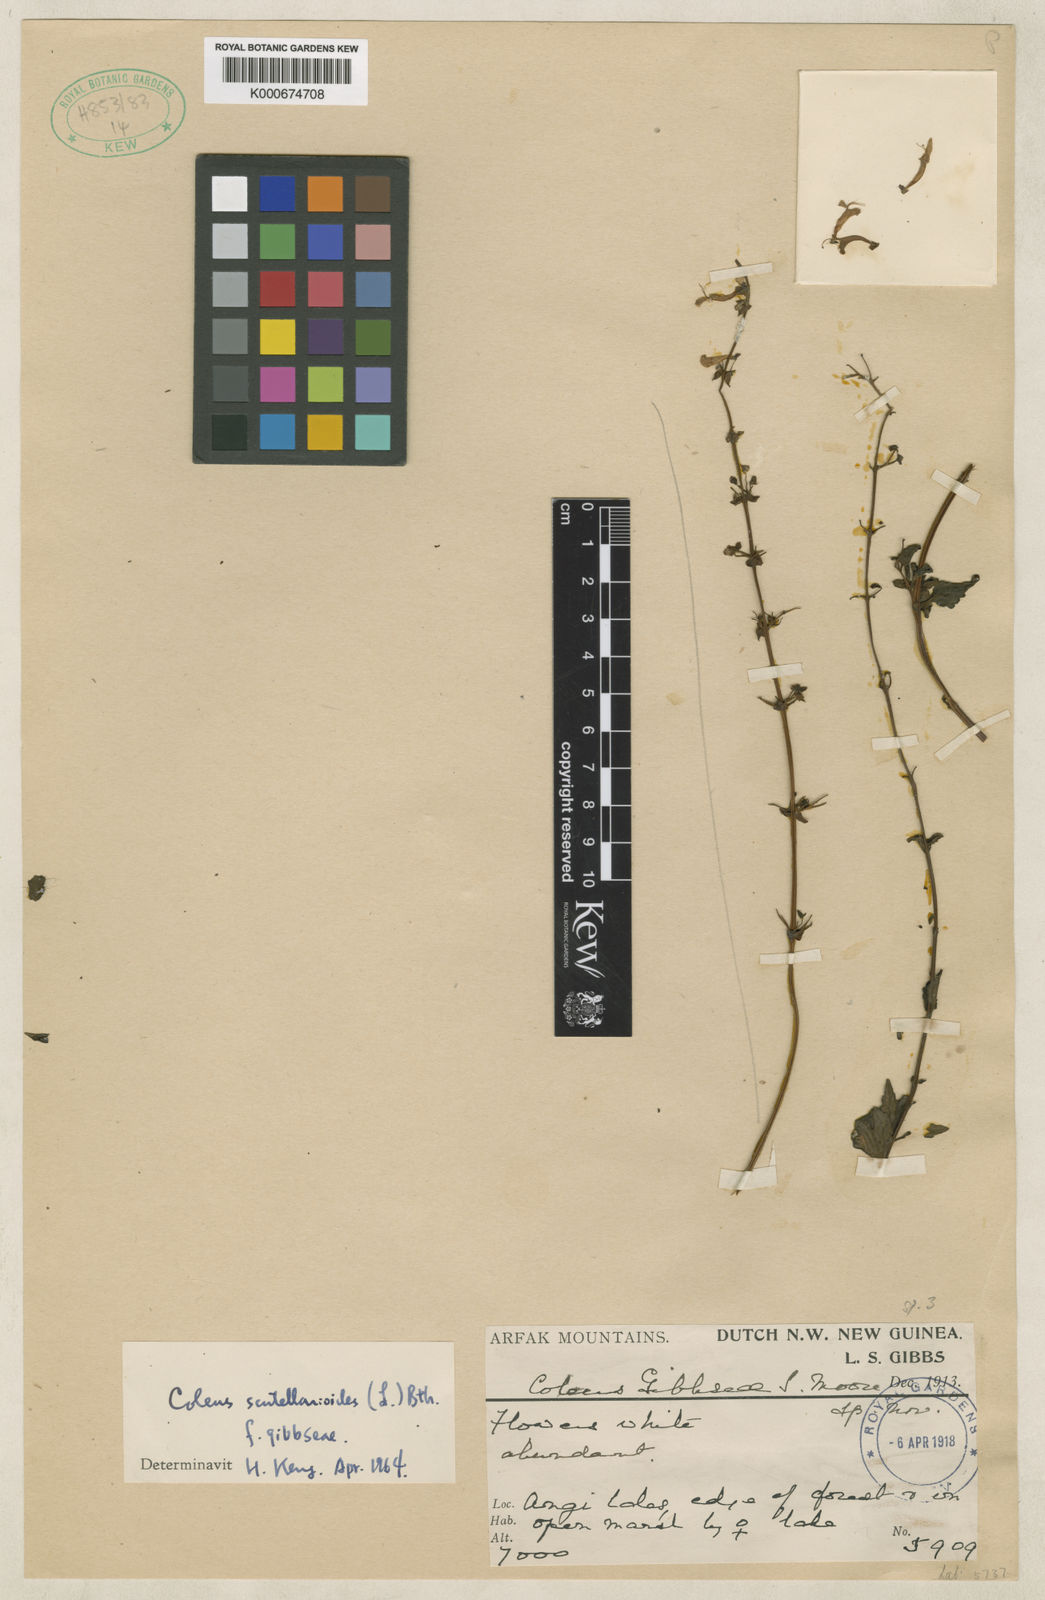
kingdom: Plantae
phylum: Tracheophyta
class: Magnoliopsida
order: Lamiales
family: Lamiaceae
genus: Coleus
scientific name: Coleus scutellarioides
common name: Coleus
